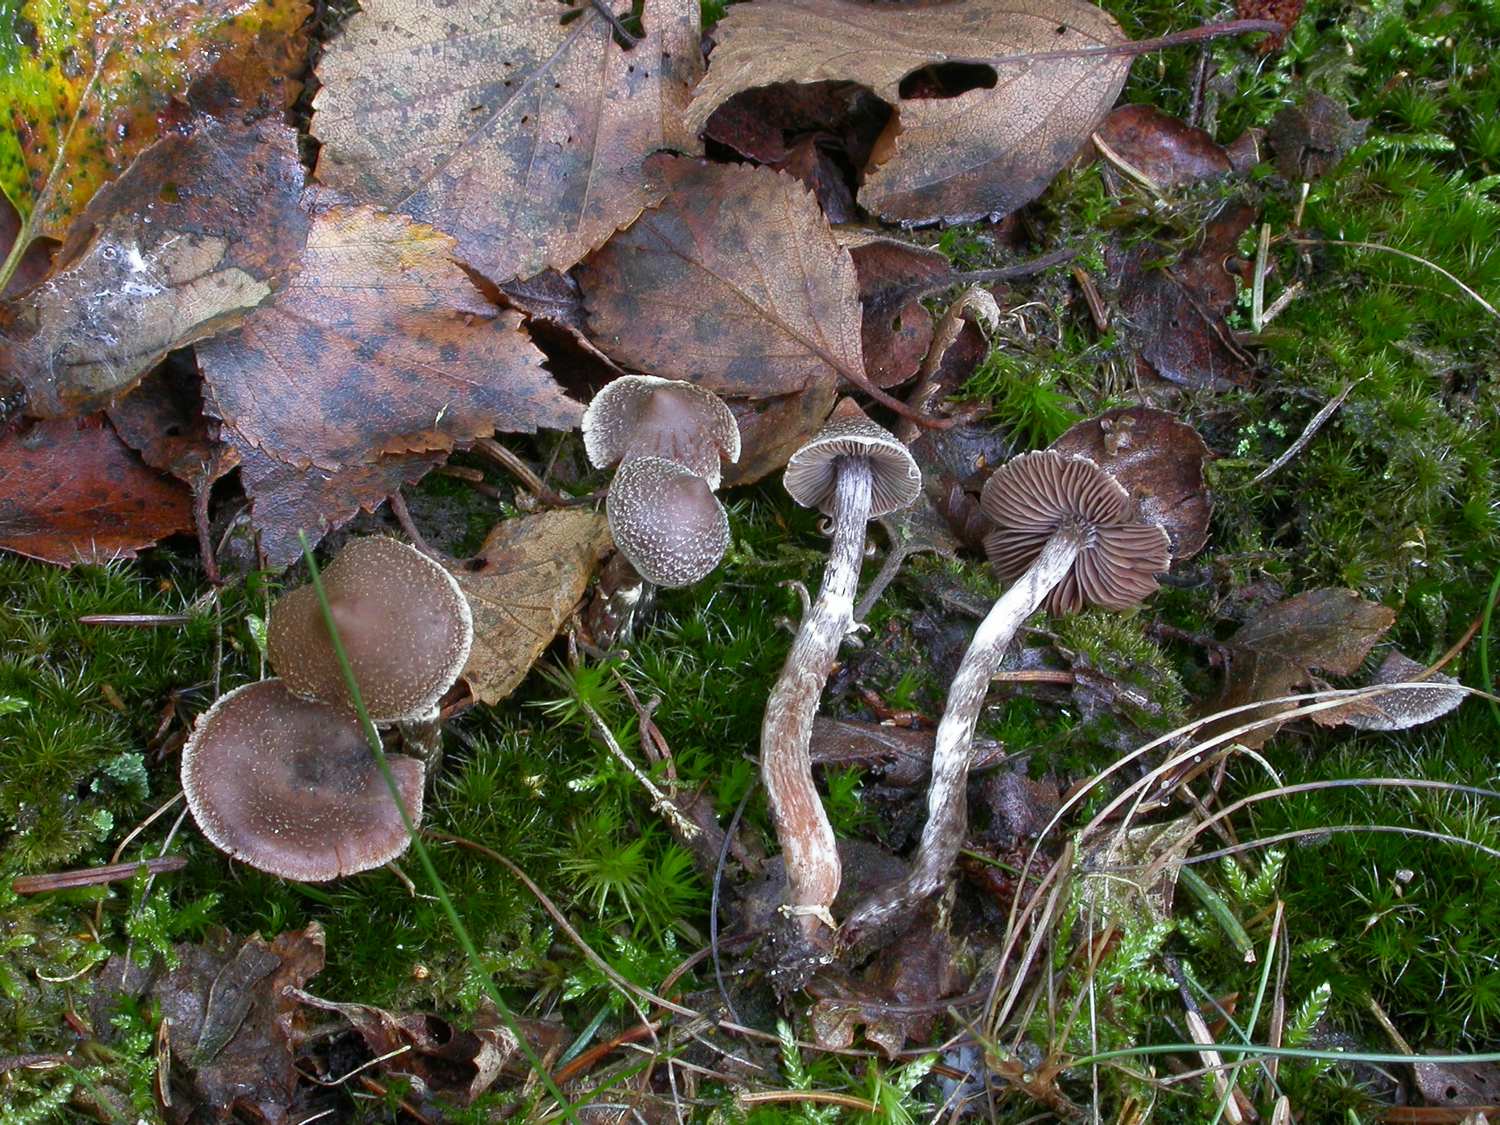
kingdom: Fungi
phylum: Basidiomycota
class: Agaricomycetes
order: Agaricales
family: Cortinariaceae
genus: Cortinarius
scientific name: Cortinarius
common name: pelargonie-slørhat
